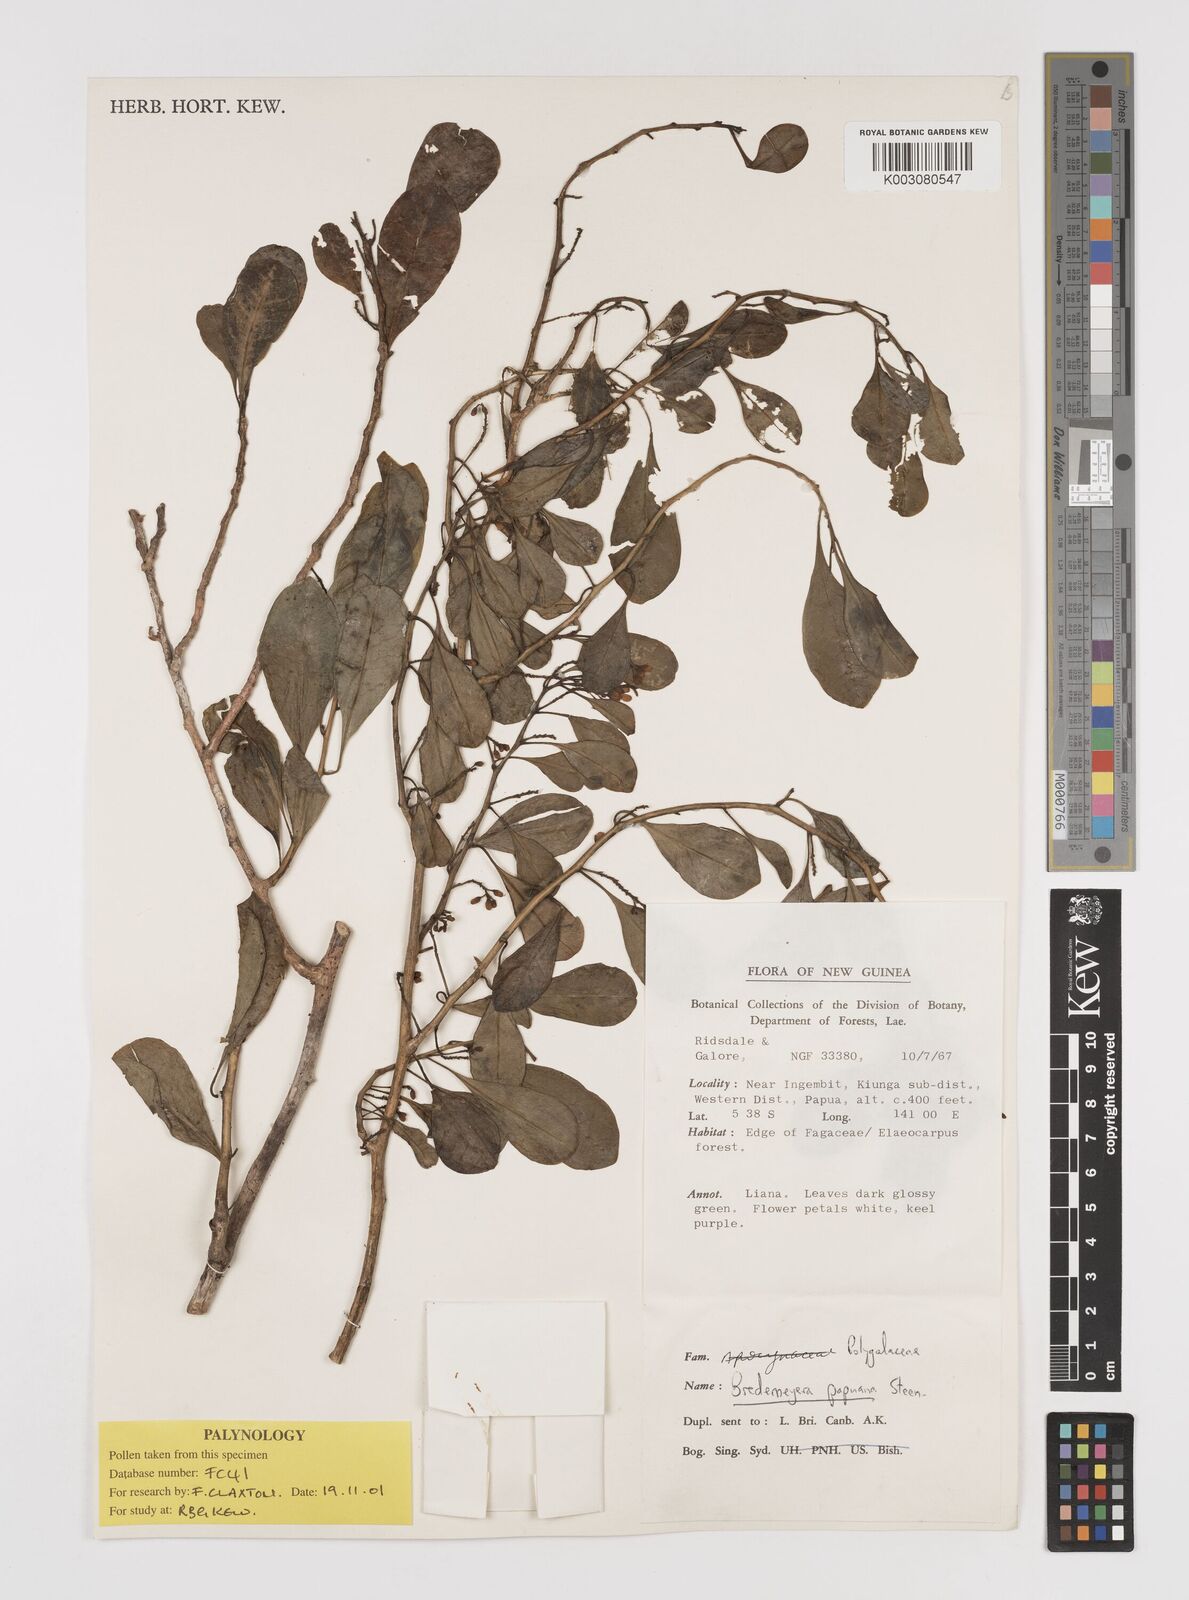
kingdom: Plantae
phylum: Tracheophyta
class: Magnoliopsida
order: Fabales
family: Polygalaceae
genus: Polygala
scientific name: Polygala papuana
